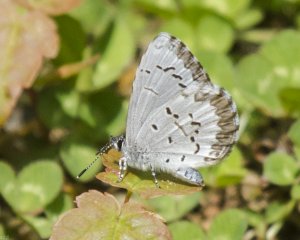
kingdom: Animalia
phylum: Arthropoda
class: Insecta
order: Lepidoptera
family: Lycaenidae
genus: Celastrina
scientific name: Celastrina lucia
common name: Northern Spring Azure
